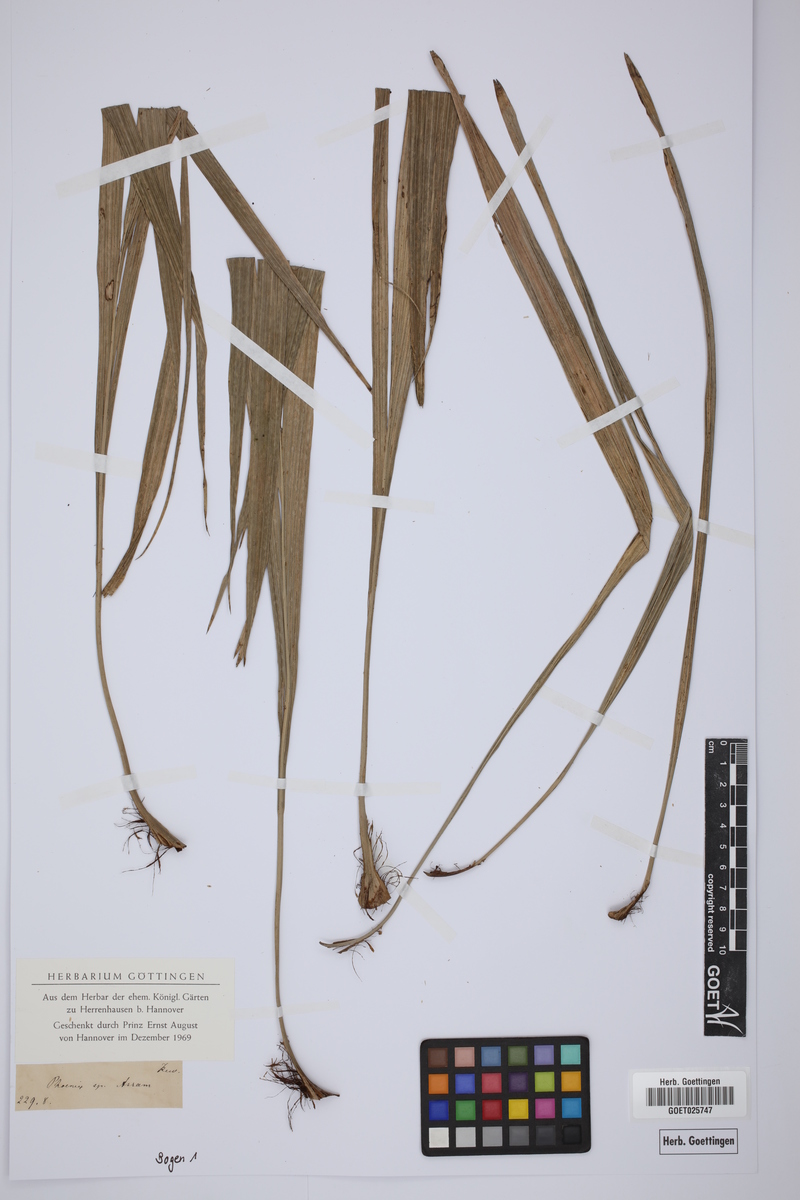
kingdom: Plantae
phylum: Tracheophyta
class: Liliopsida
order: Arecales
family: Arecaceae
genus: Phoenix
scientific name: Phoenix
